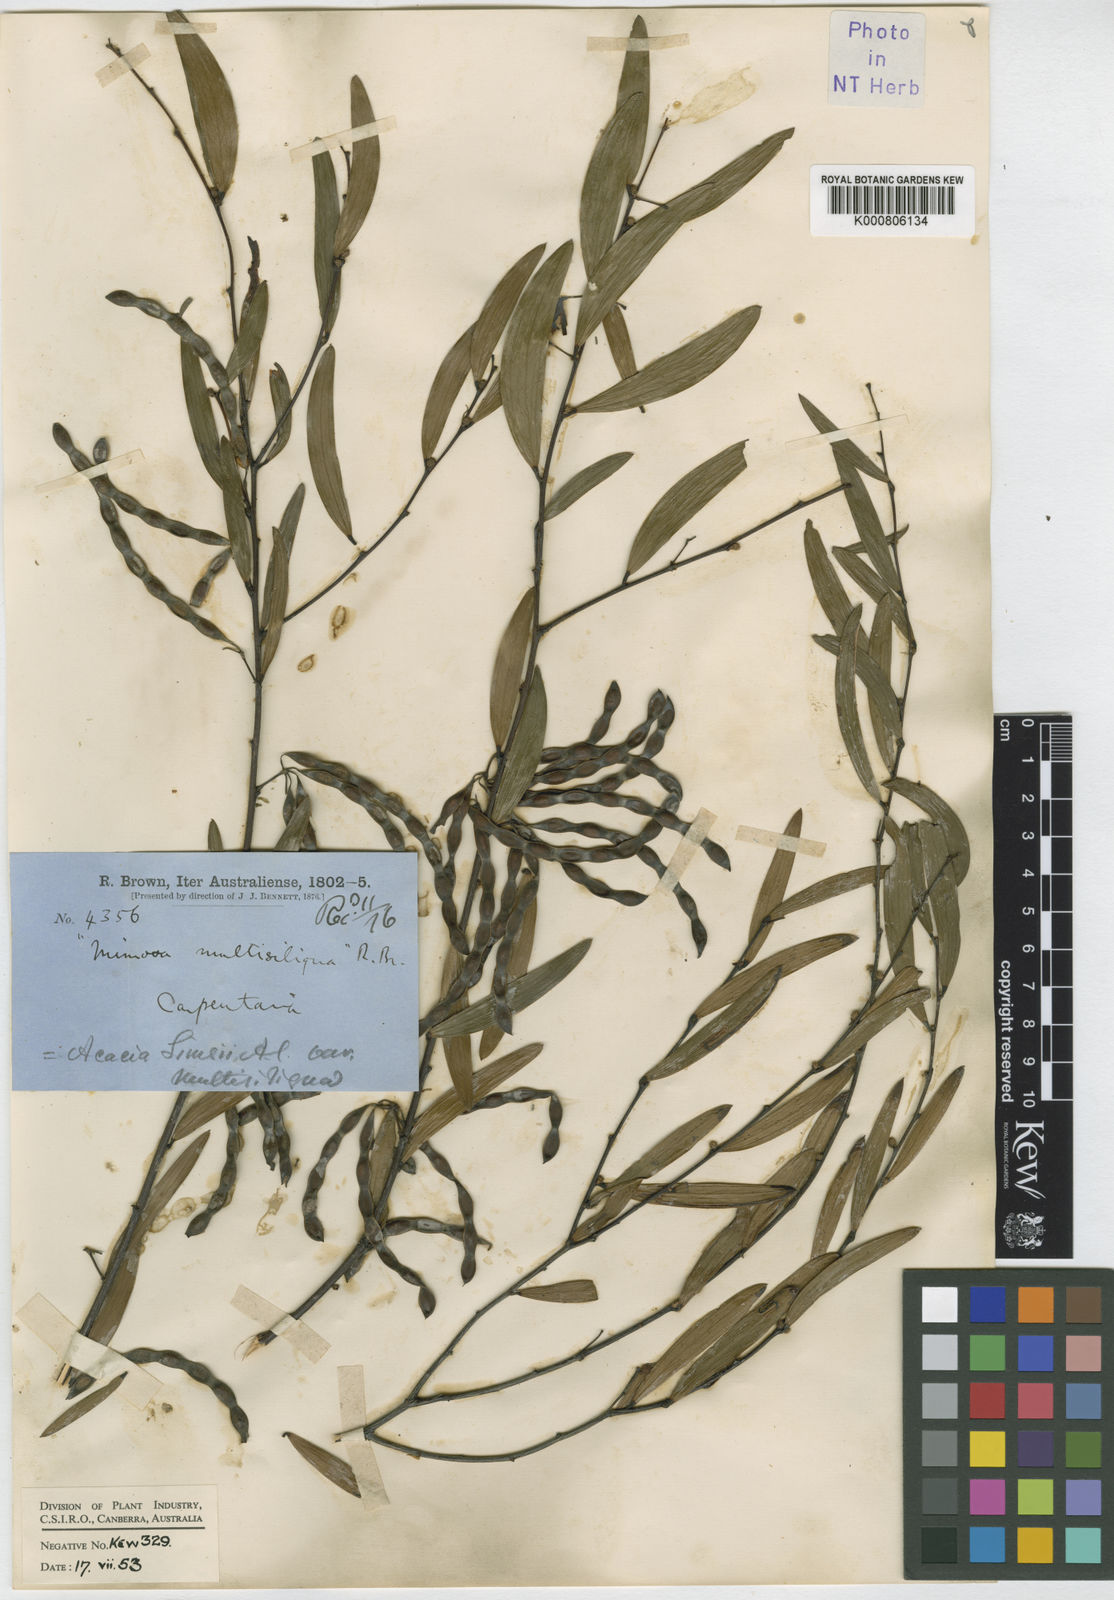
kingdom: Plantae
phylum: Tracheophyta
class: Magnoliopsida
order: Fabales
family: Fabaceae
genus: Acacia
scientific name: Acacia multisiliqua
